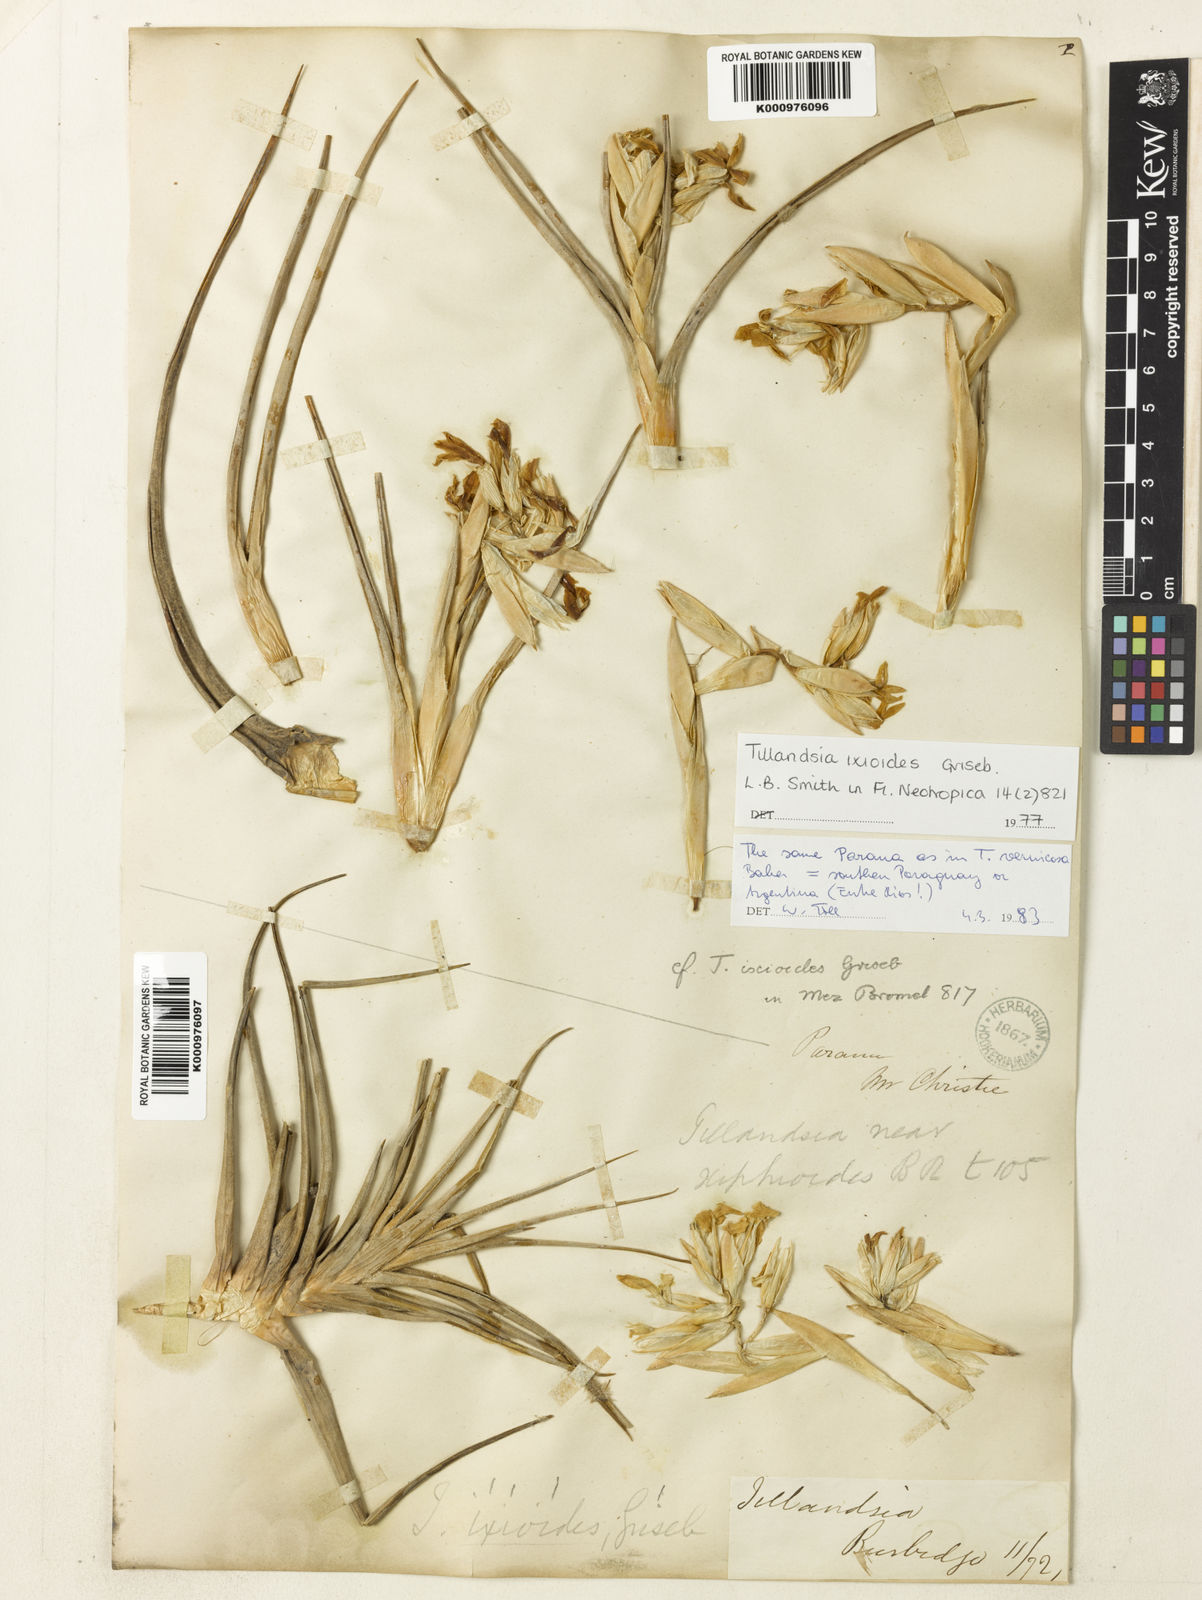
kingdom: Plantae
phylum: Tracheophyta
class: Liliopsida
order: Poales
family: Bromeliaceae
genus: Tillandsia
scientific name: Tillandsia ixioides
